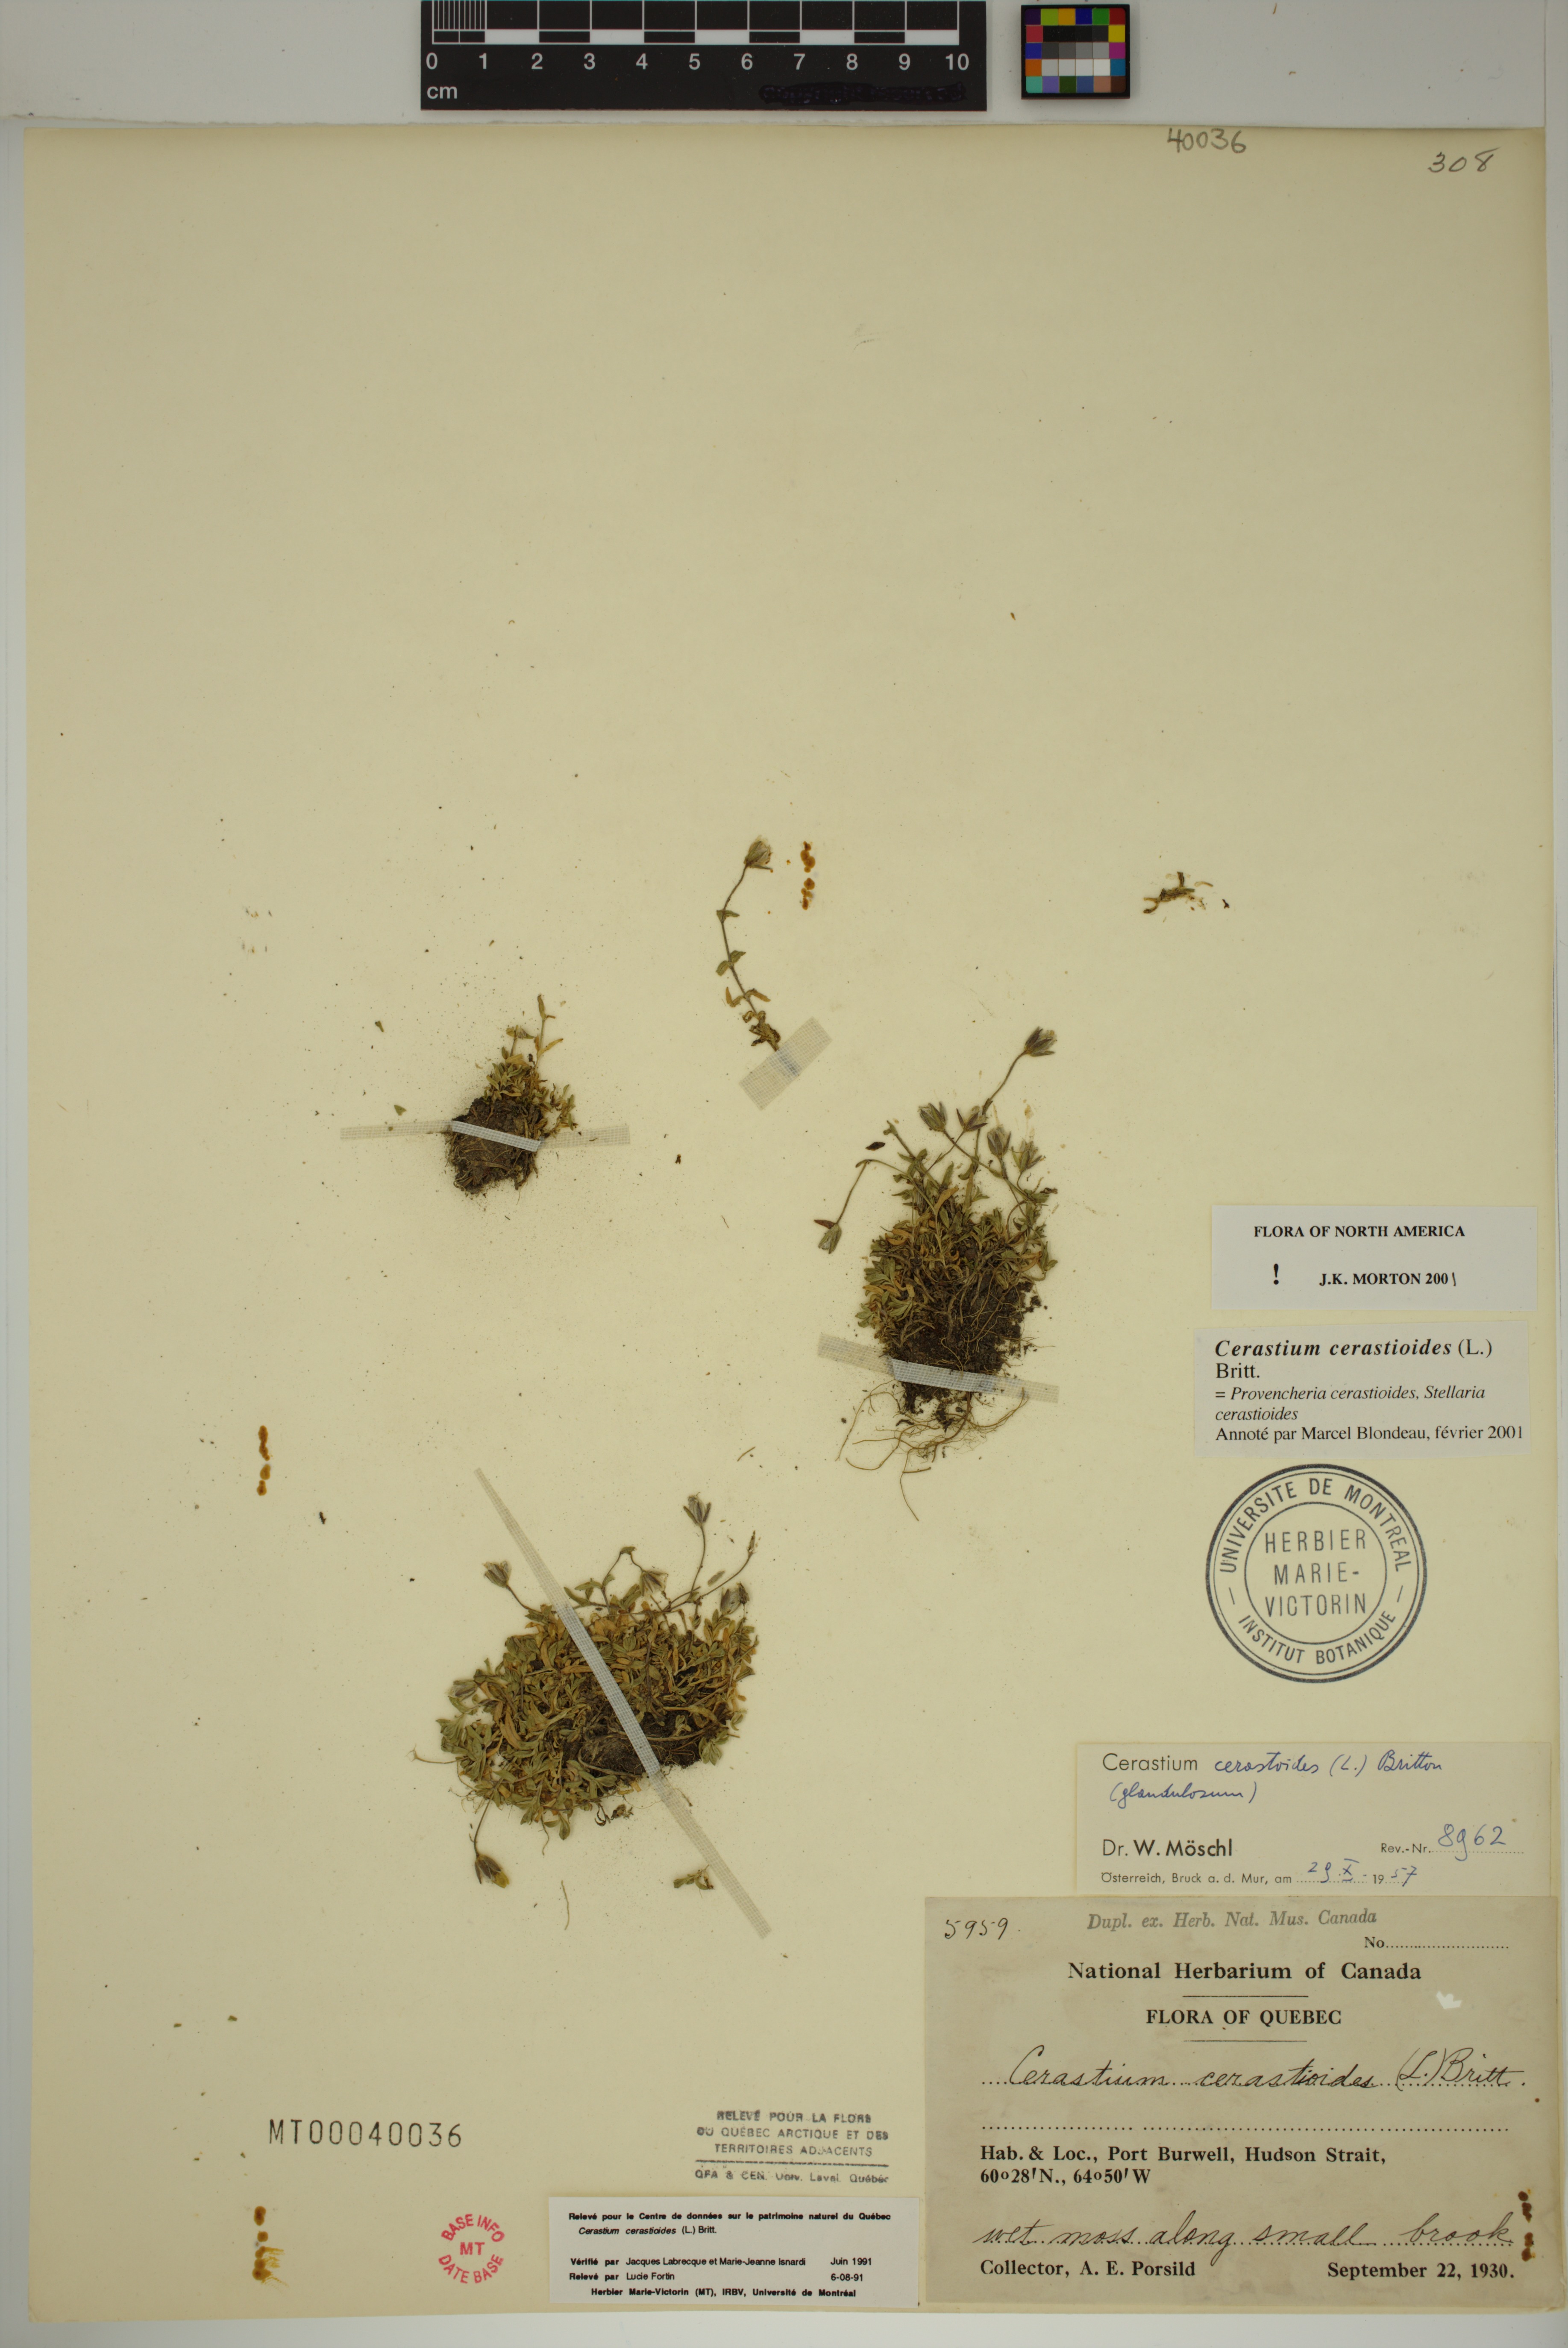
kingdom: Plantae
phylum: Tracheophyta
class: Magnoliopsida
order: Caryophyllales
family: Caryophyllaceae
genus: Dichodon
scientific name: Dichodon cerastoides
